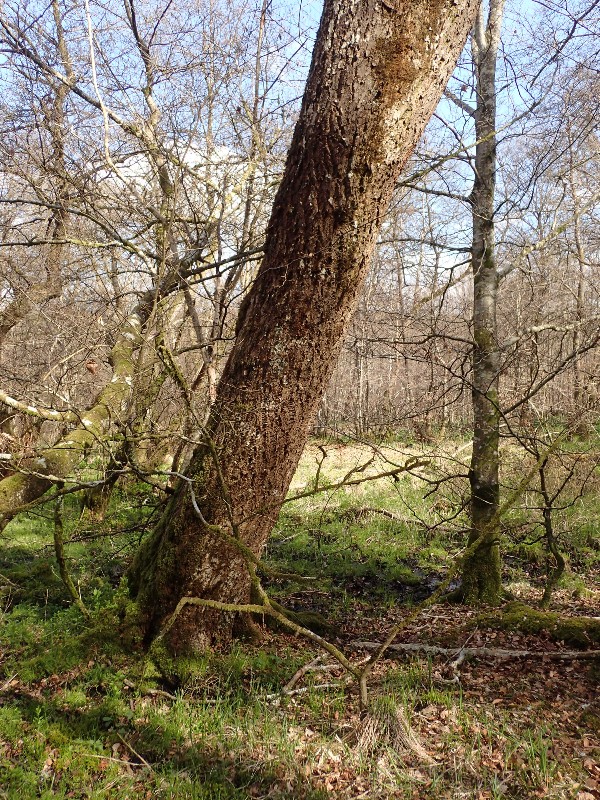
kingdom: Fungi
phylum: Ascomycota
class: Lecanoromycetes
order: Peltigerales
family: Lobariaceae
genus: Lobaria
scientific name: Lobaria pulmonaria
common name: almindelig lungelav
